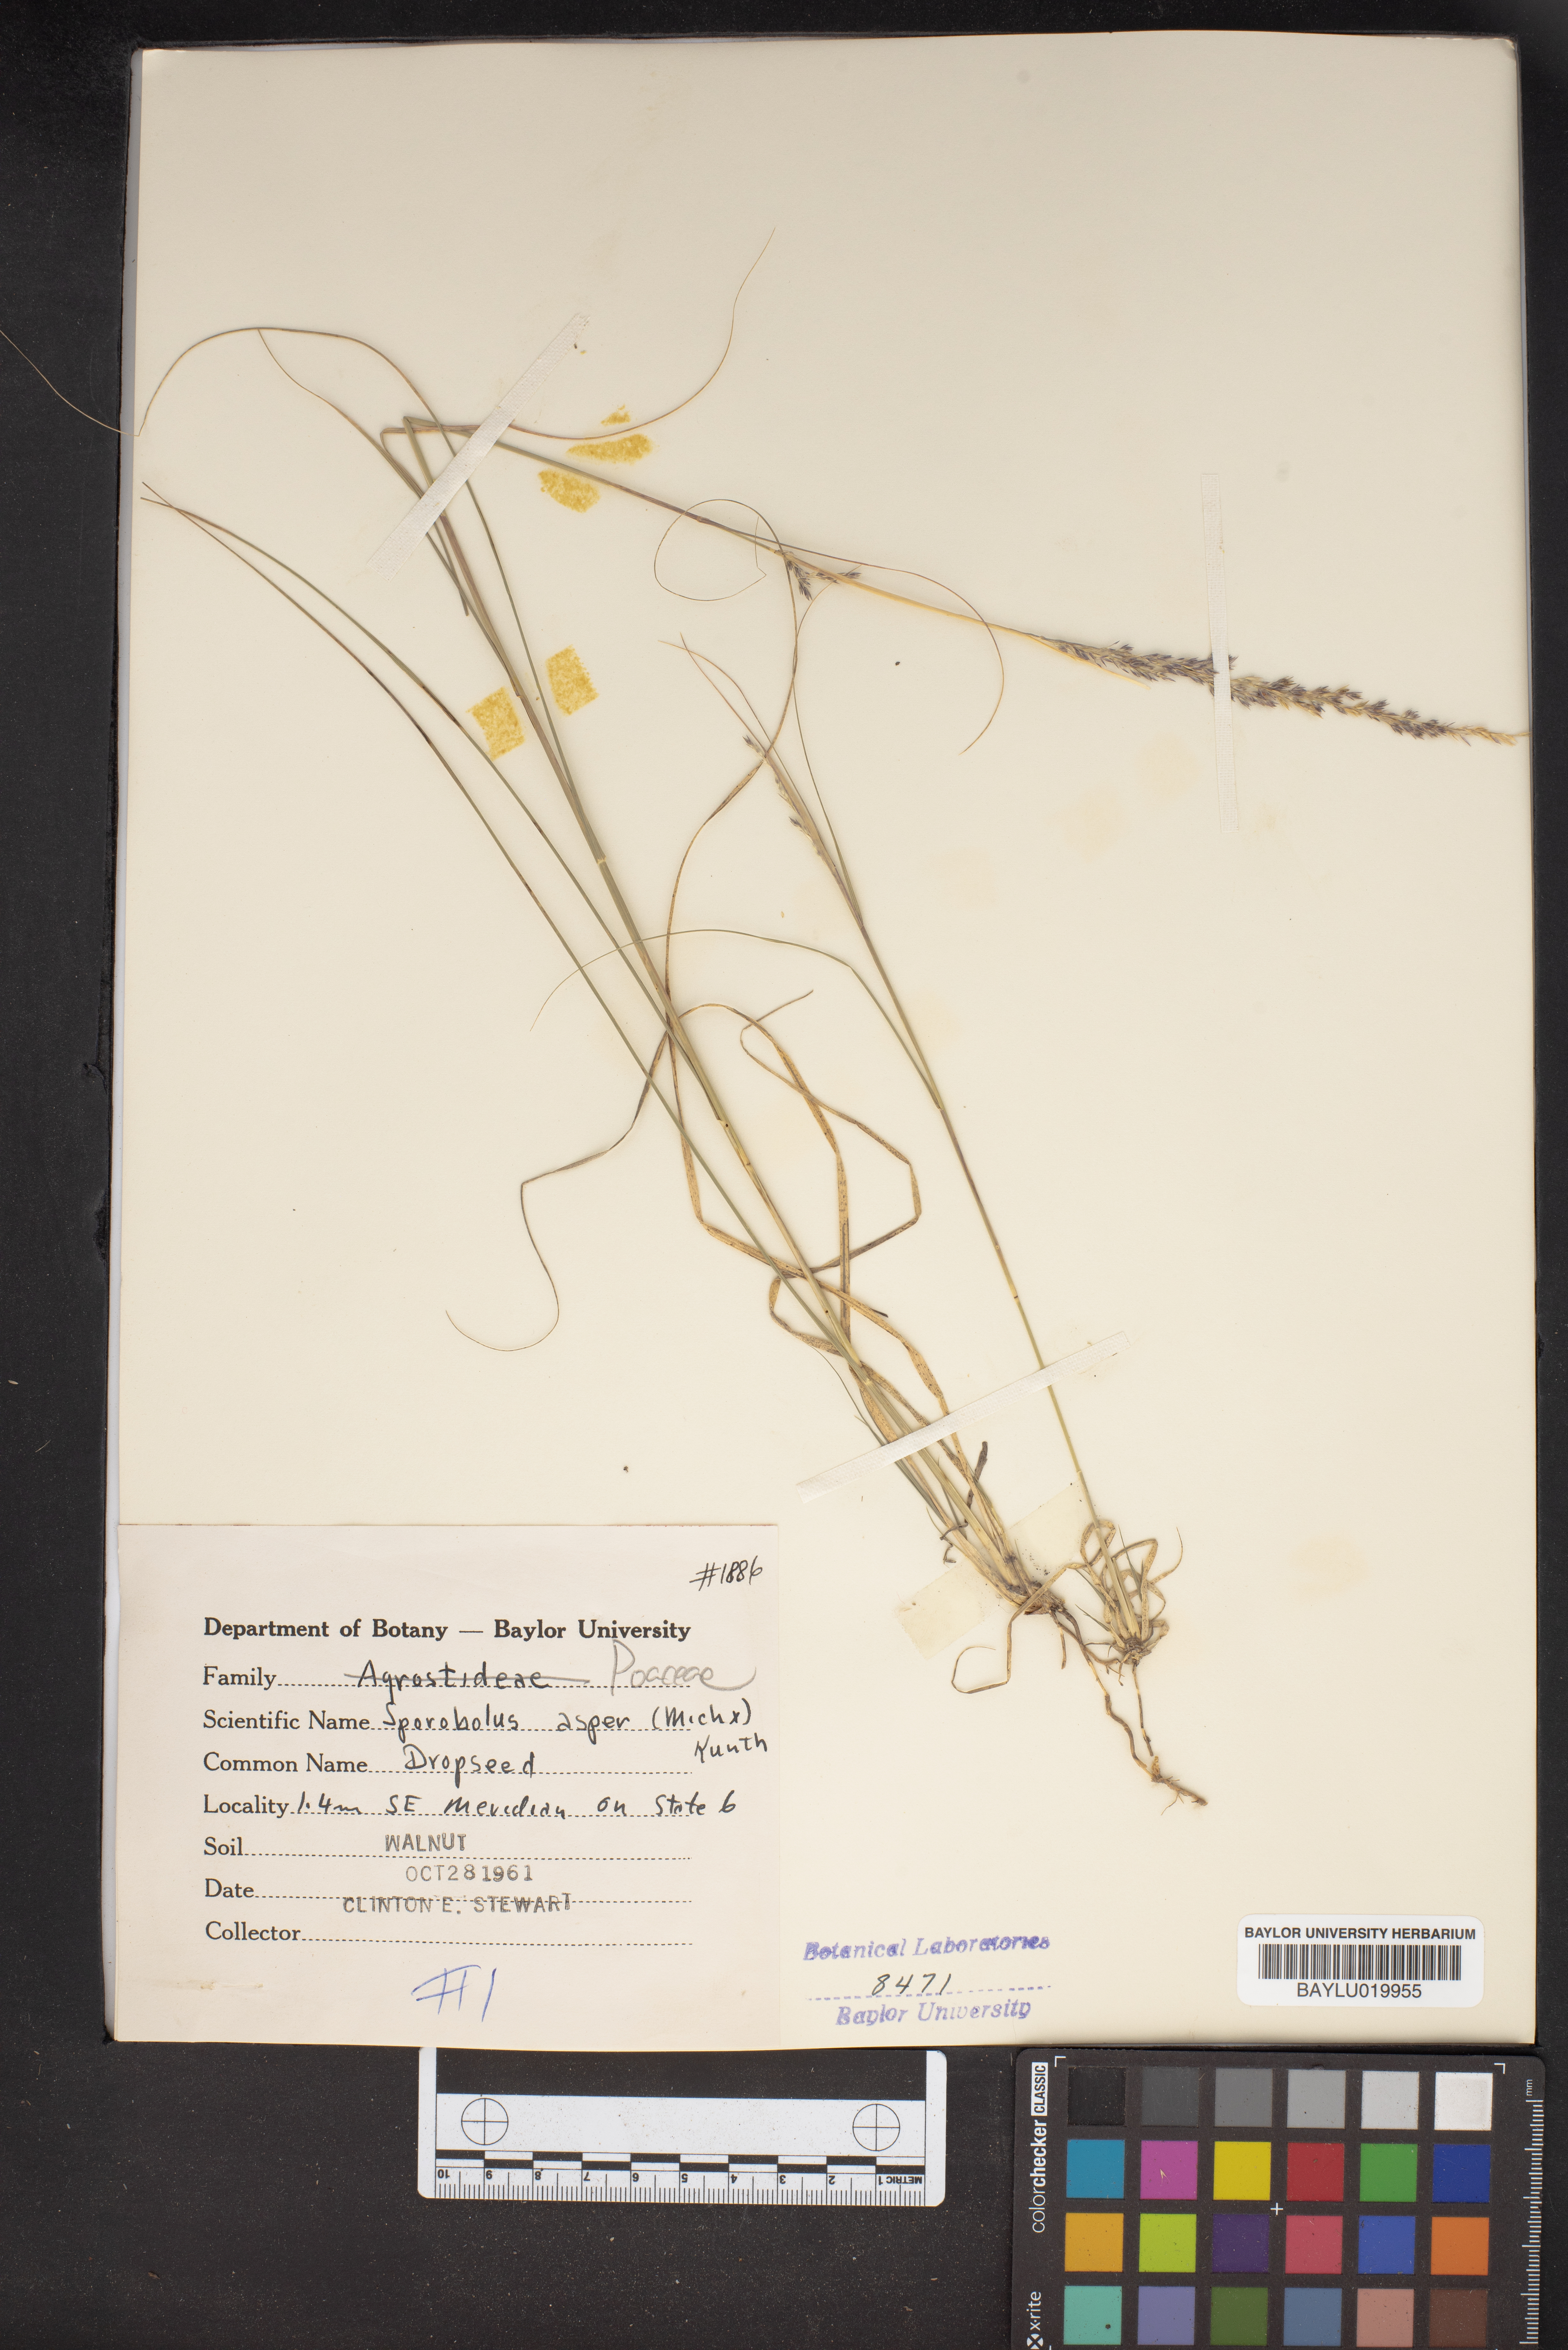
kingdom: Plantae
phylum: Tracheophyta
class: Liliopsida
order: Poales
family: Poaceae
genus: Sporobolus
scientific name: Sporobolus compositus
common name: Rough dropseed
